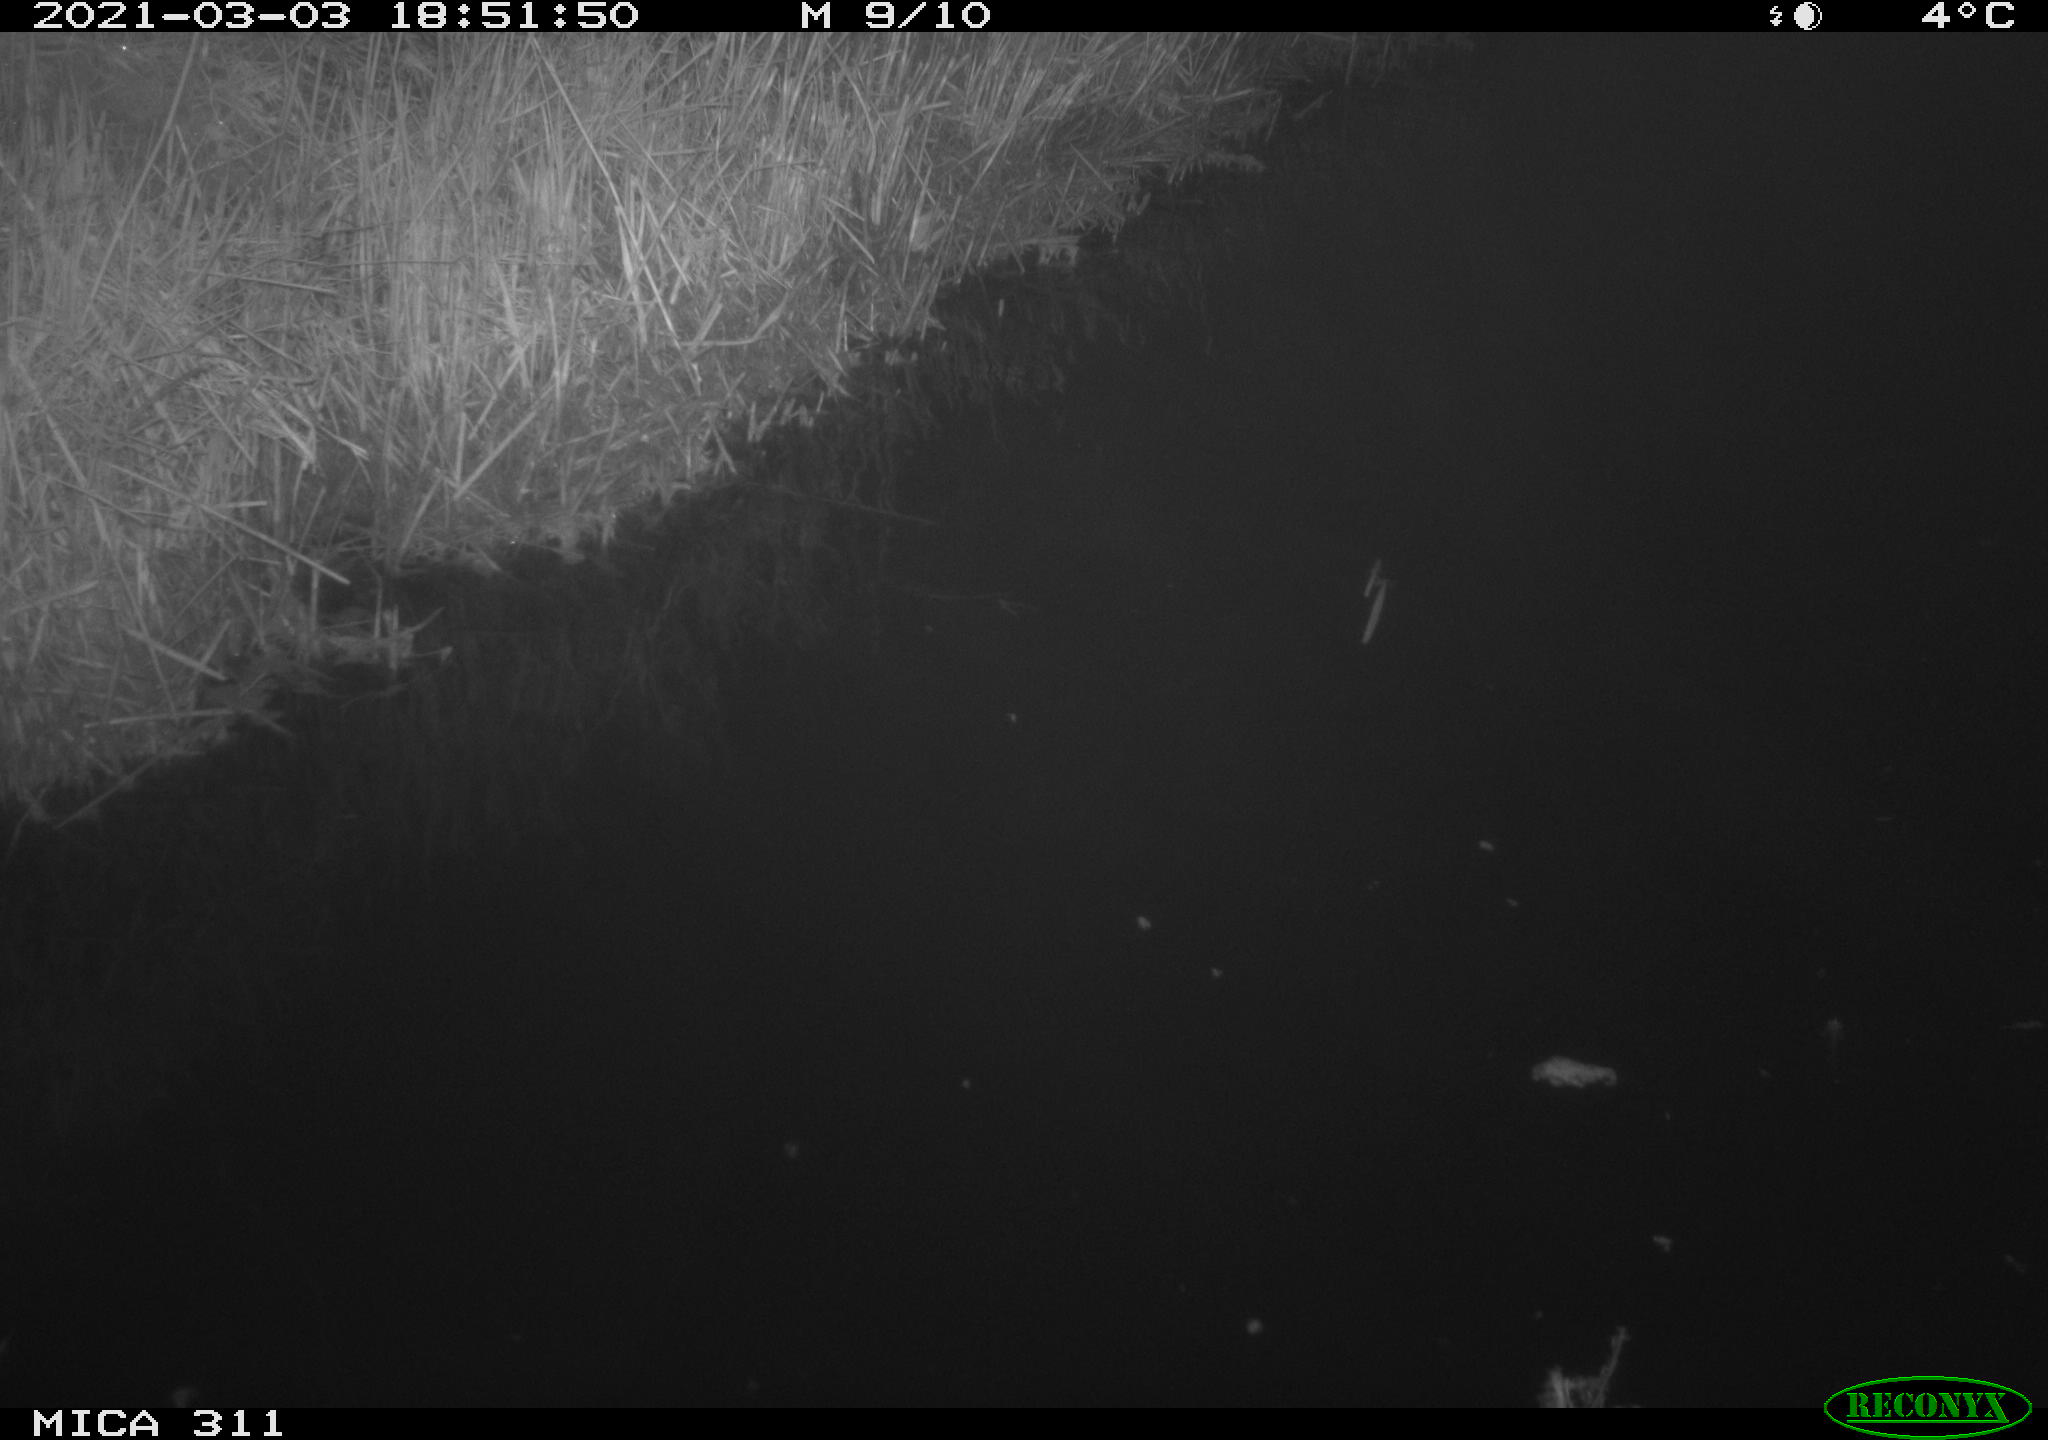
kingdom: Animalia
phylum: Chordata
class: Aves
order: Gruiformes
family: Rallidae
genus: Gallinula
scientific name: Gallinula chloropus
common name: Common moorhen
